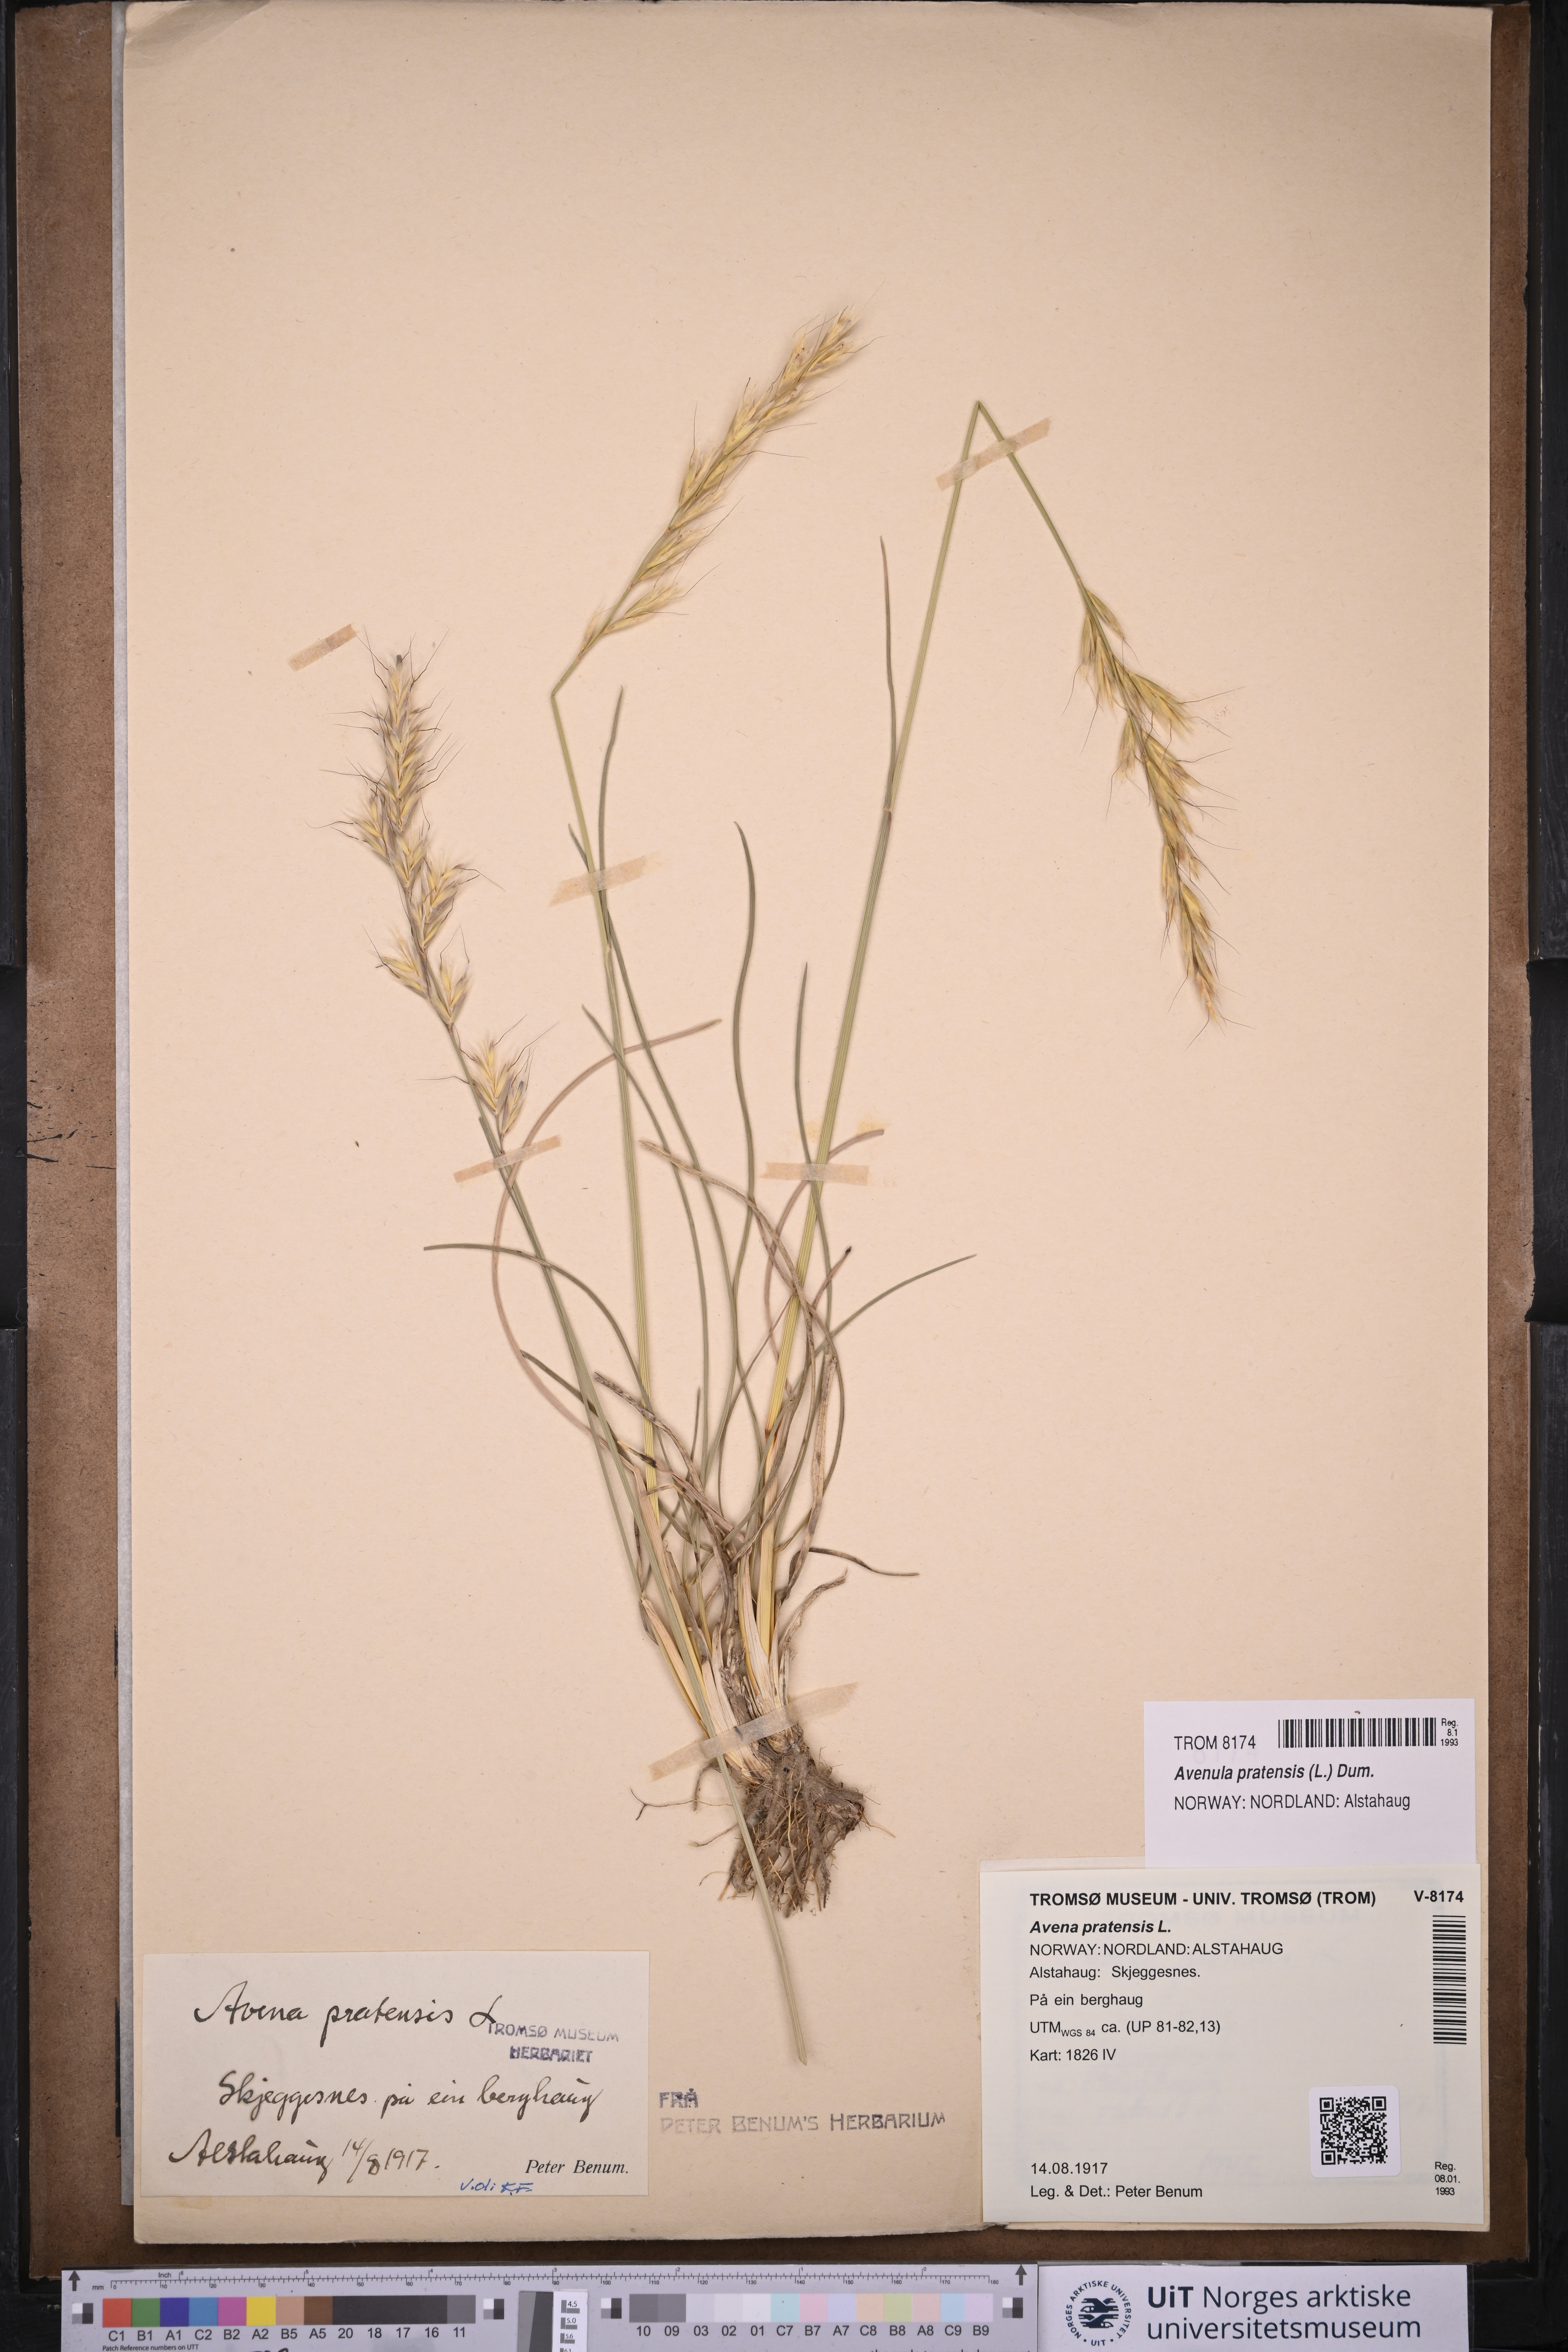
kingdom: Plantae
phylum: Tracheophyta
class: Liliopsida
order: Poales
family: Poaceae
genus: Helictochloa
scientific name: Helictochloa pratensis
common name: Meadow oat grass
